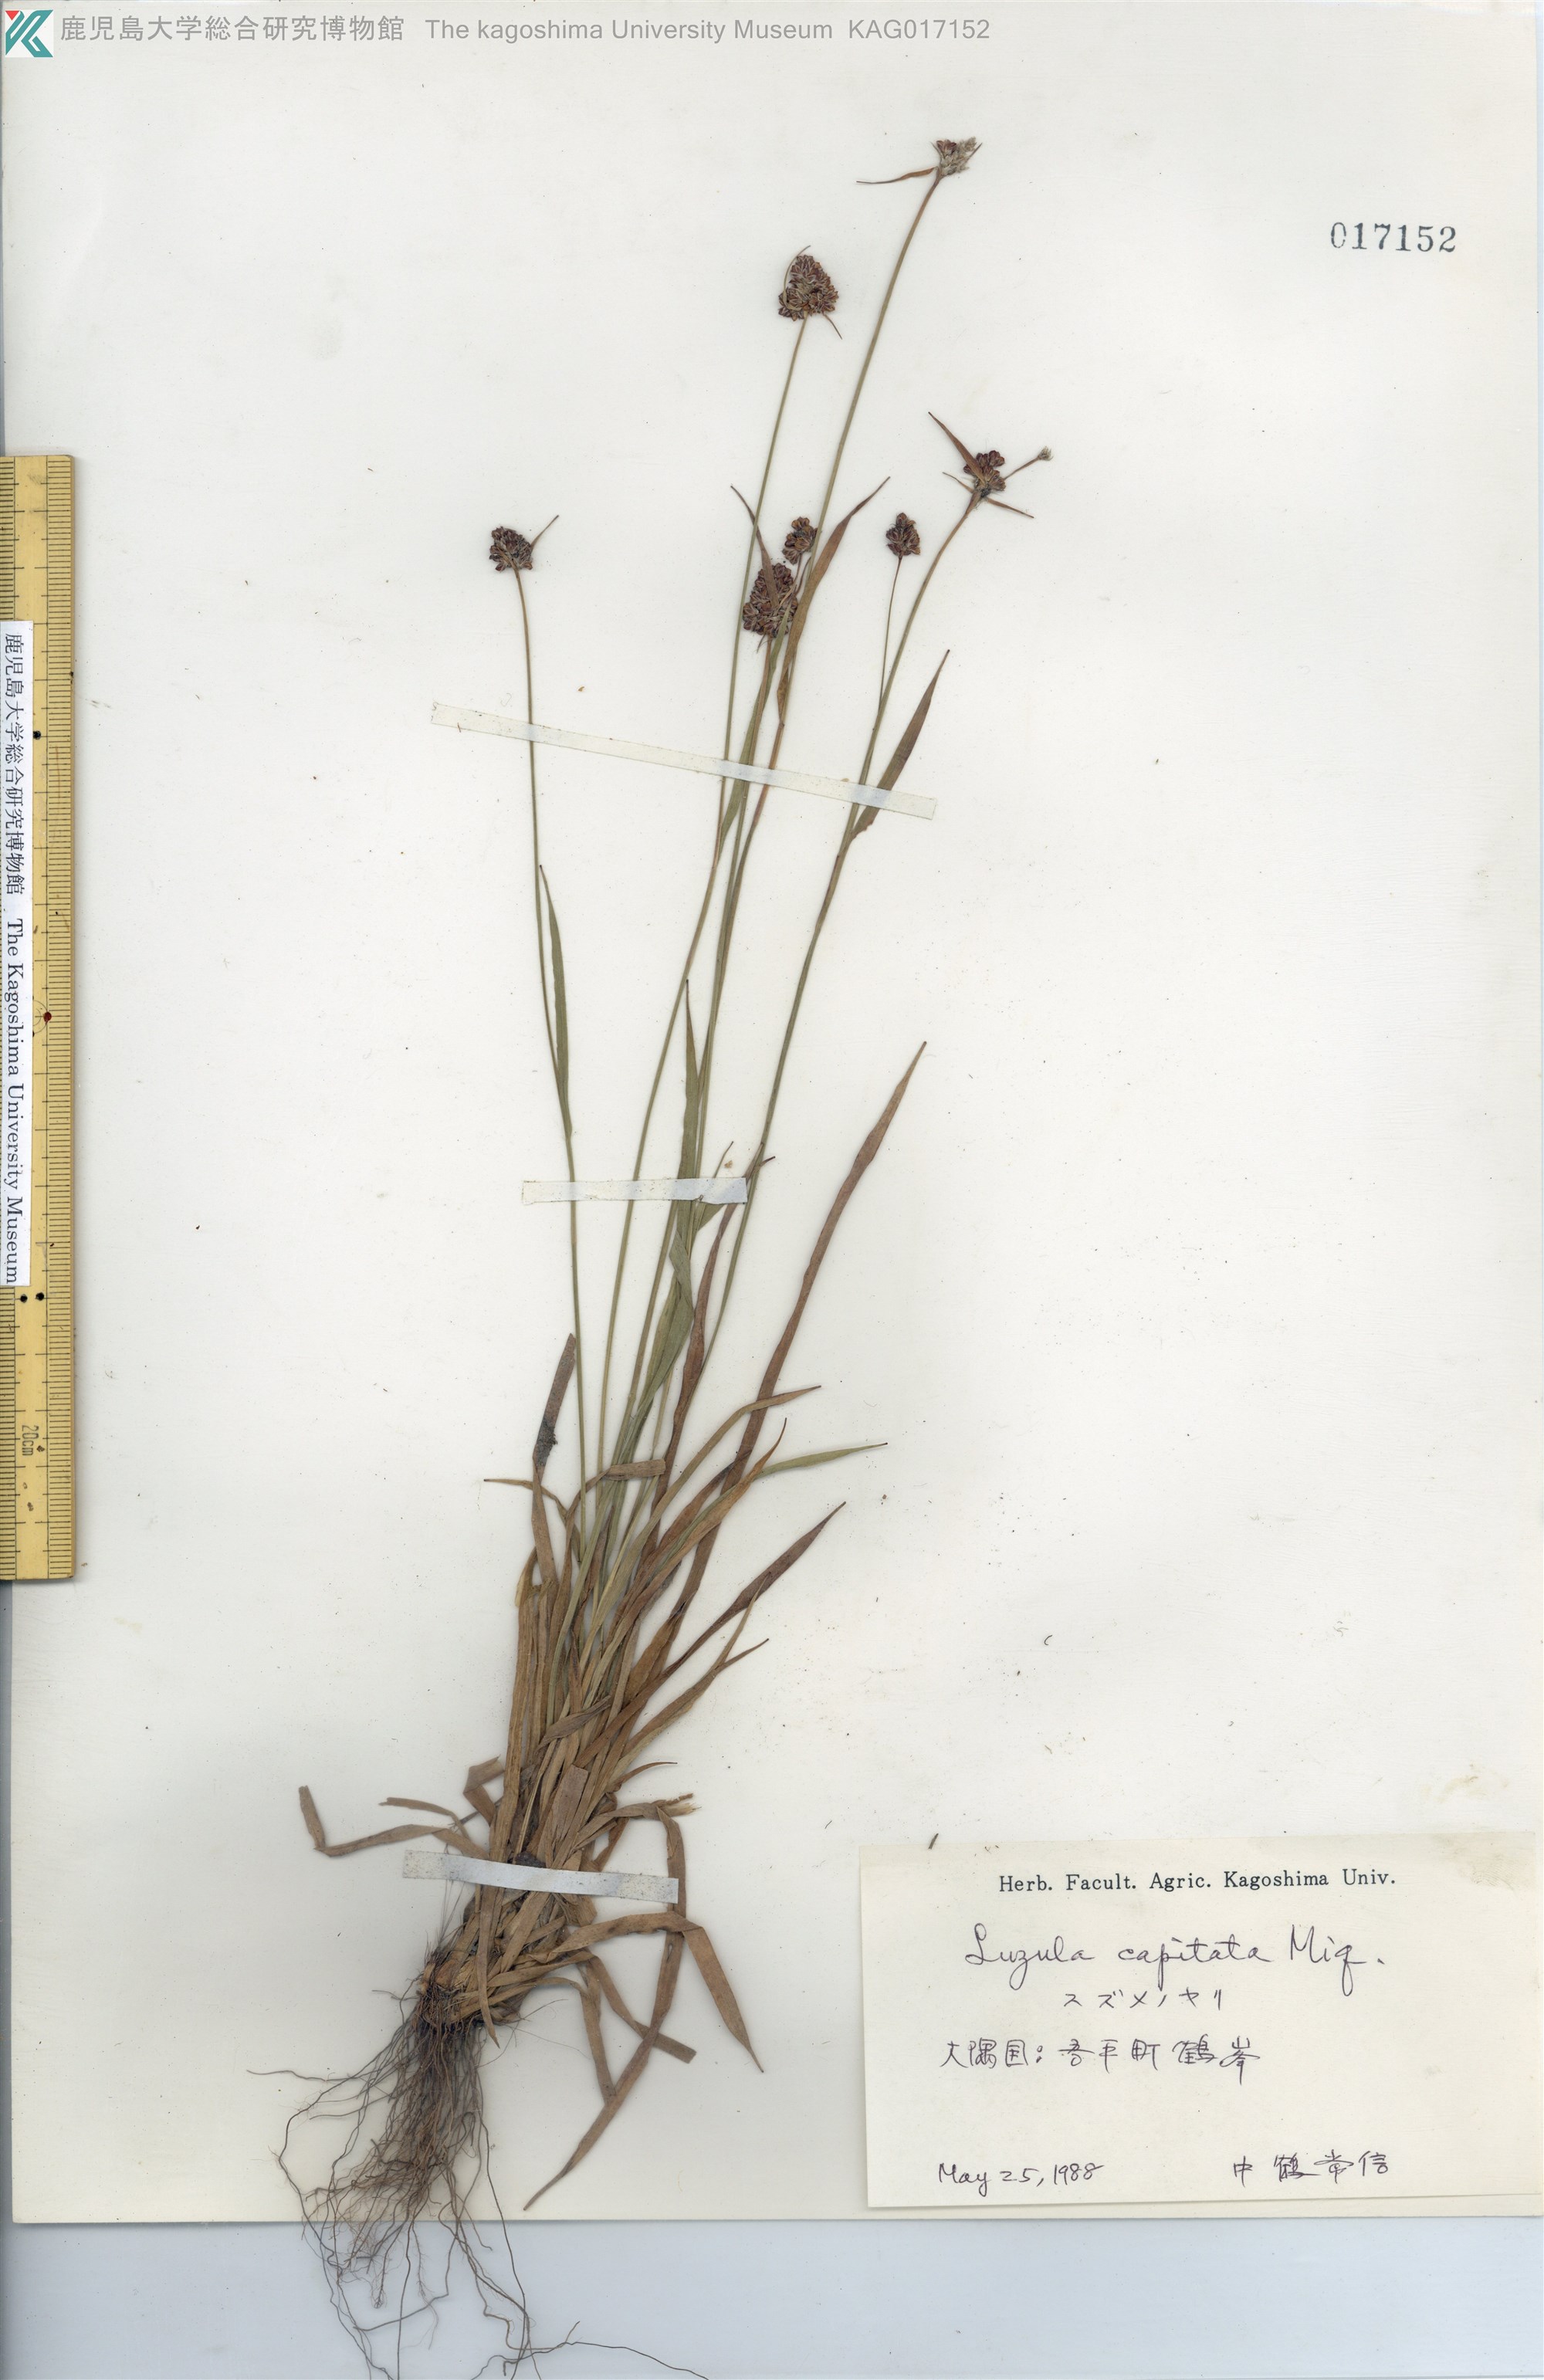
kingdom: Plantae
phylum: Tracheophyta
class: Liliopsida
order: Poales
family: Juncaceae
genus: Luzula
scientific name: Luzula capitata
